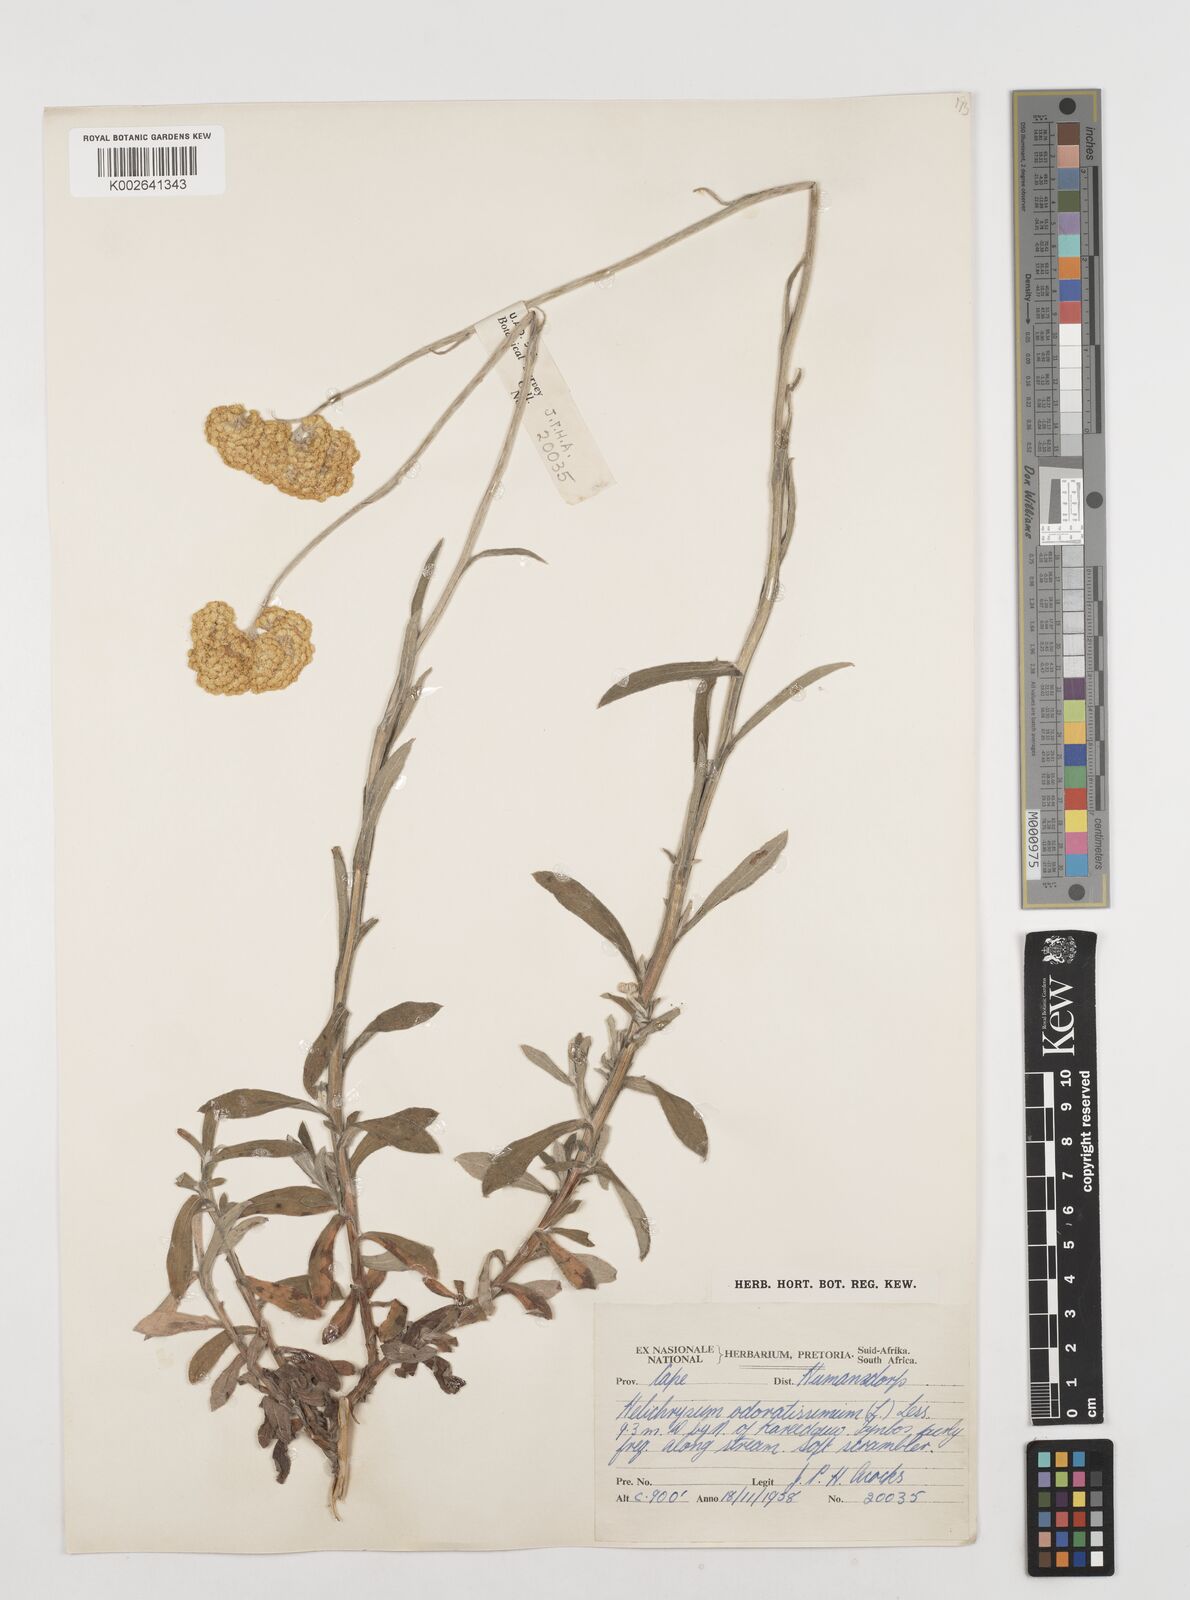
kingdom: Plantae
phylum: Tracheophyta
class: Magnoliopsida
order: Asterales
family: Asteraceae
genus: Helichrysum
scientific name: Helichrysum odoratissimum
